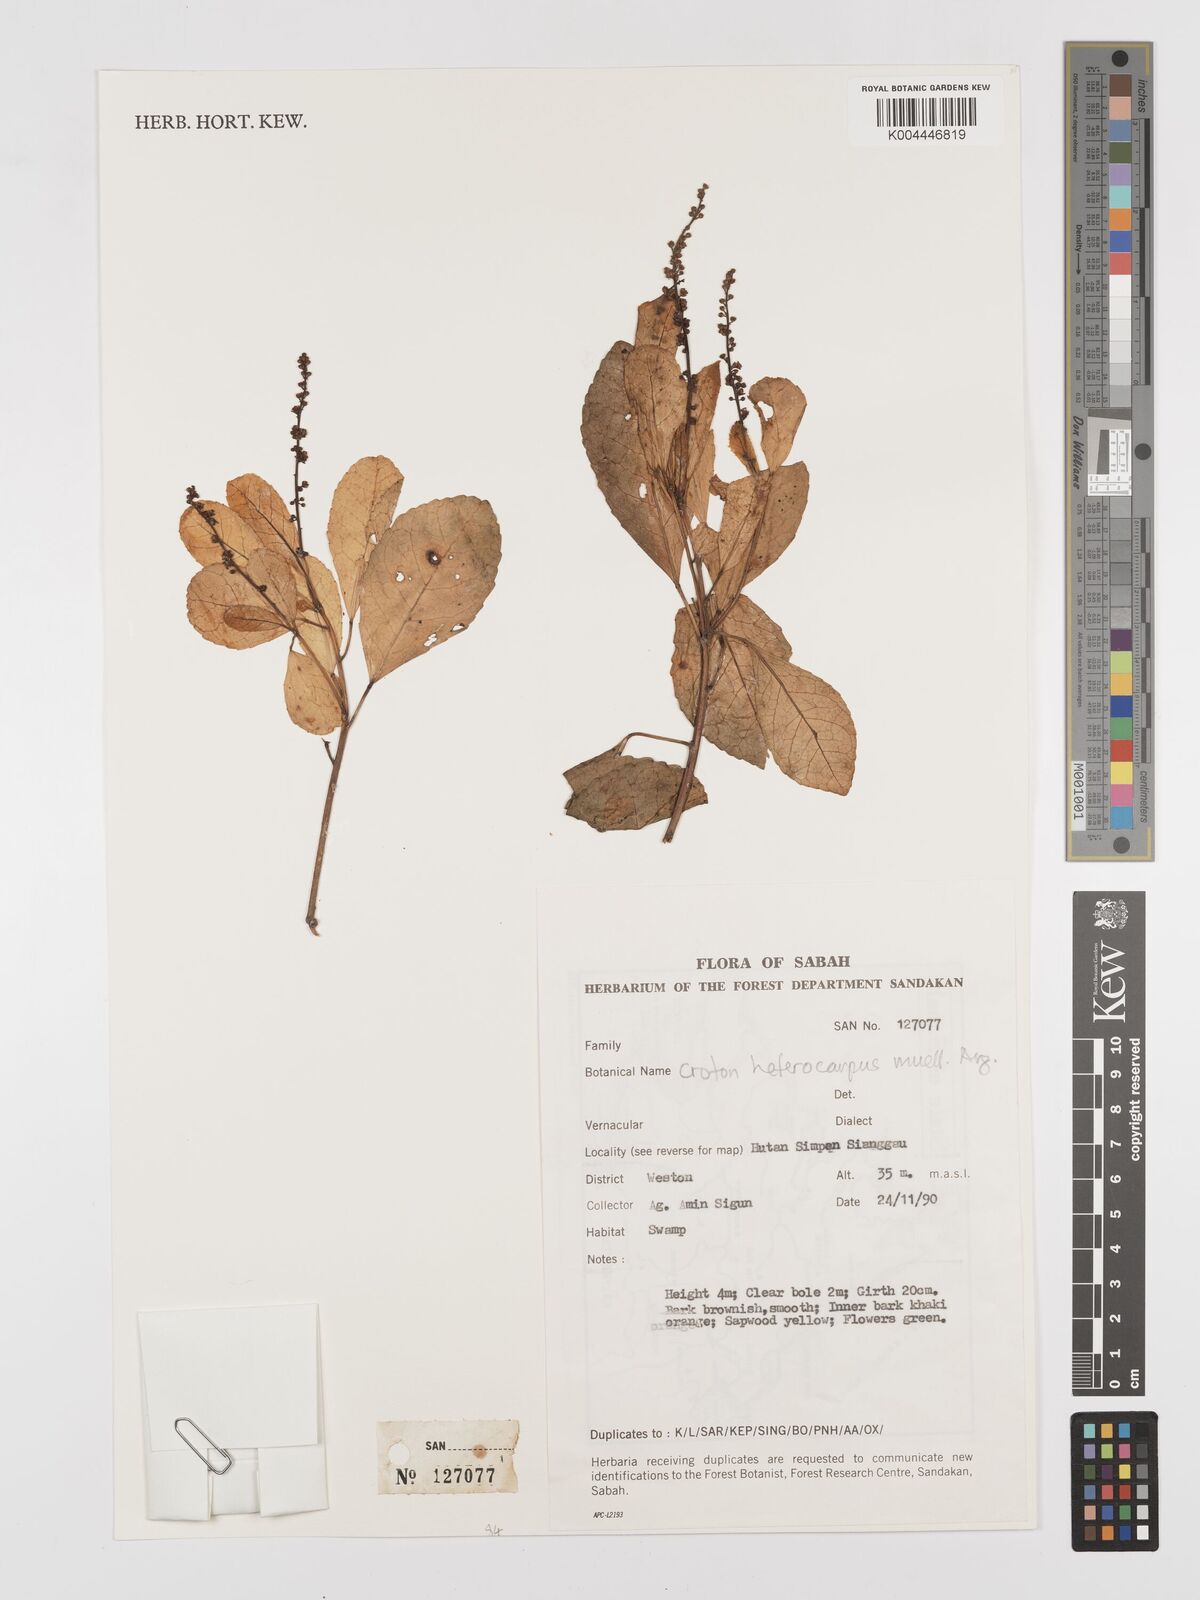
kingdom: Plantae
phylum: Tracheophyta
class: Magnoliopsida
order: Malpighiales
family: Euphorbiaceae
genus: Croton
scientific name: Croton heterocarpus
